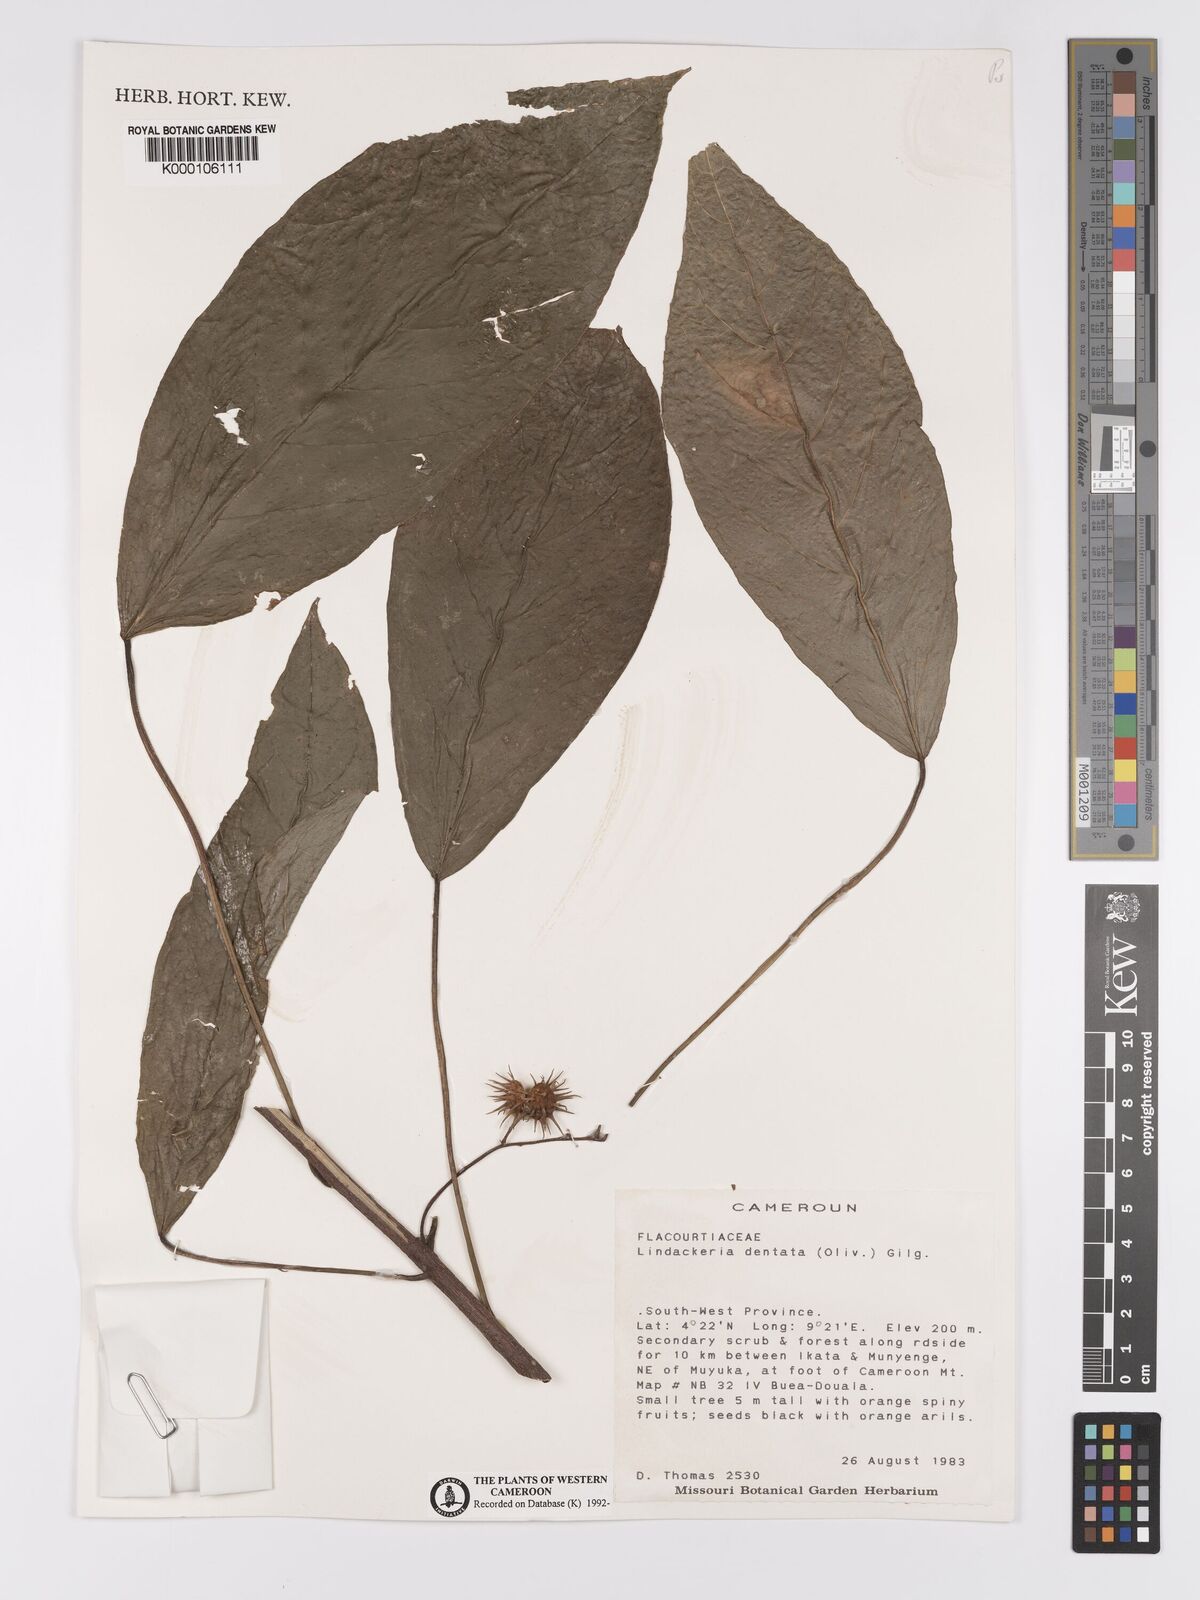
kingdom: Plantae
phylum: Tracheophyta
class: Magnoliopsida
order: Malpighiales
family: Achariaceae
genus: Lindackeria
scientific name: Lindackeria dentata
